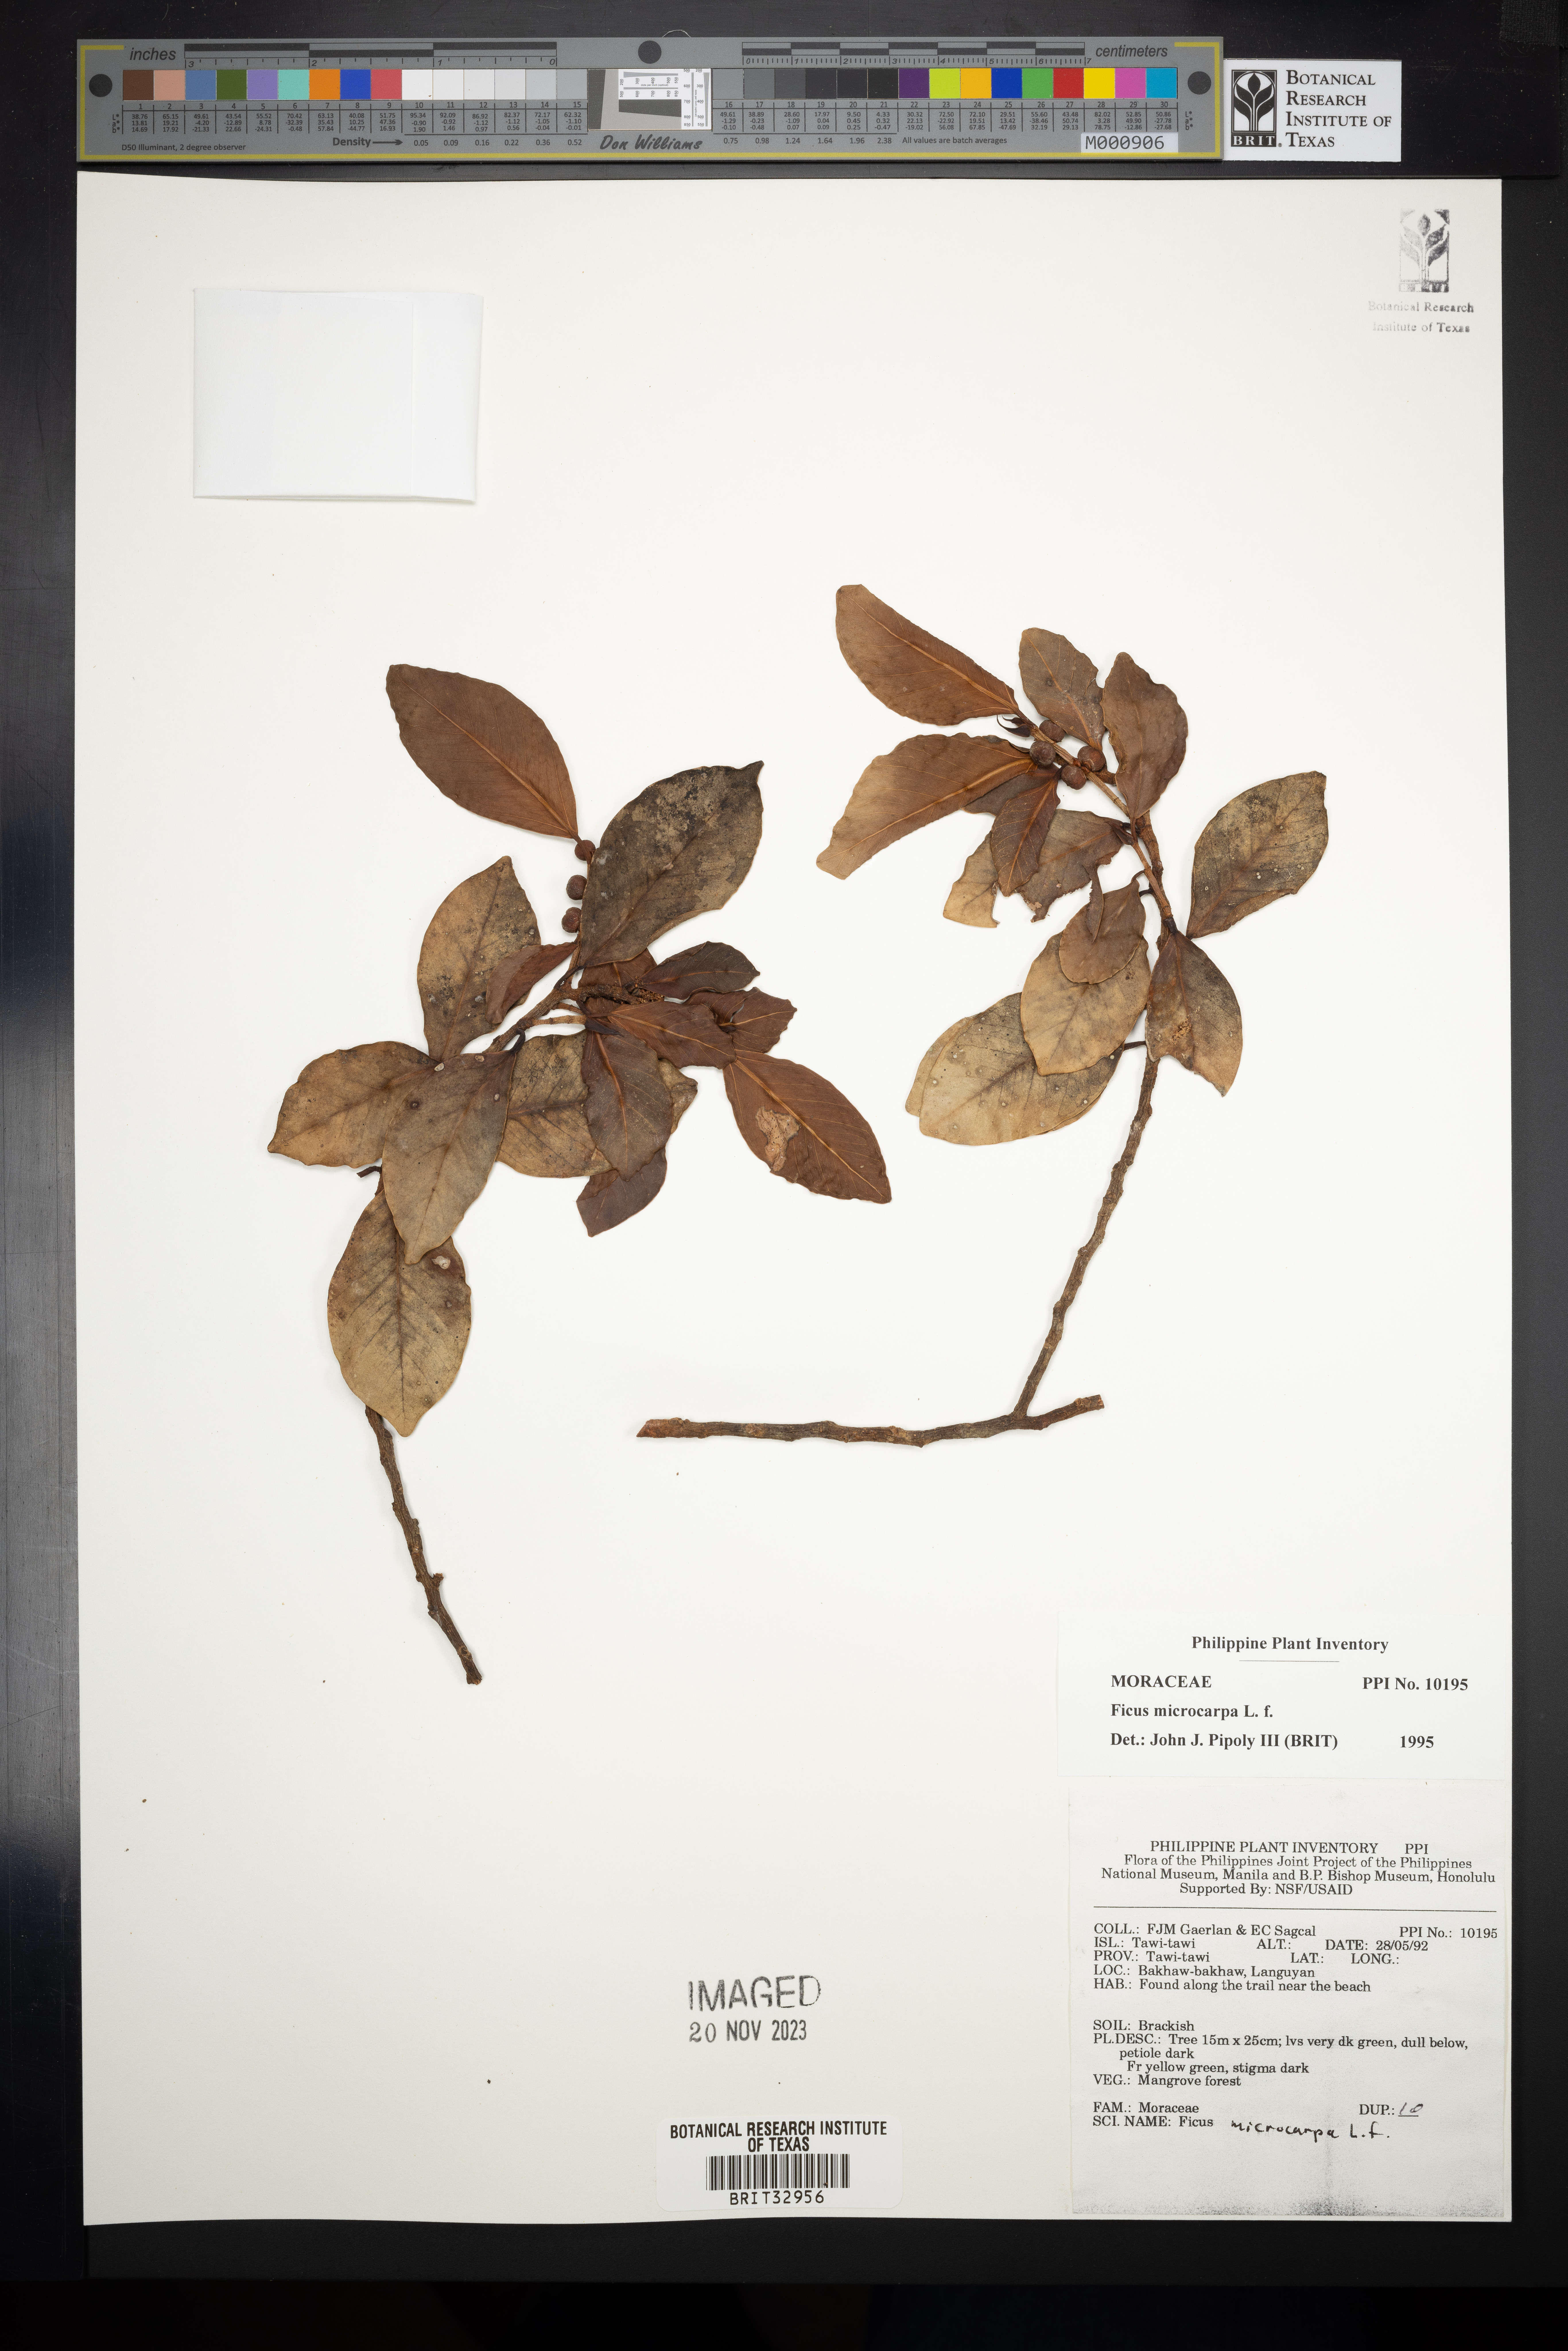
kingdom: Plantae
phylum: Tracheophyta
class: Magnoliopsida
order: Rosales
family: Moraceae
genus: Ficus
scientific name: Ficus microcarpa
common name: Chinese banyan
